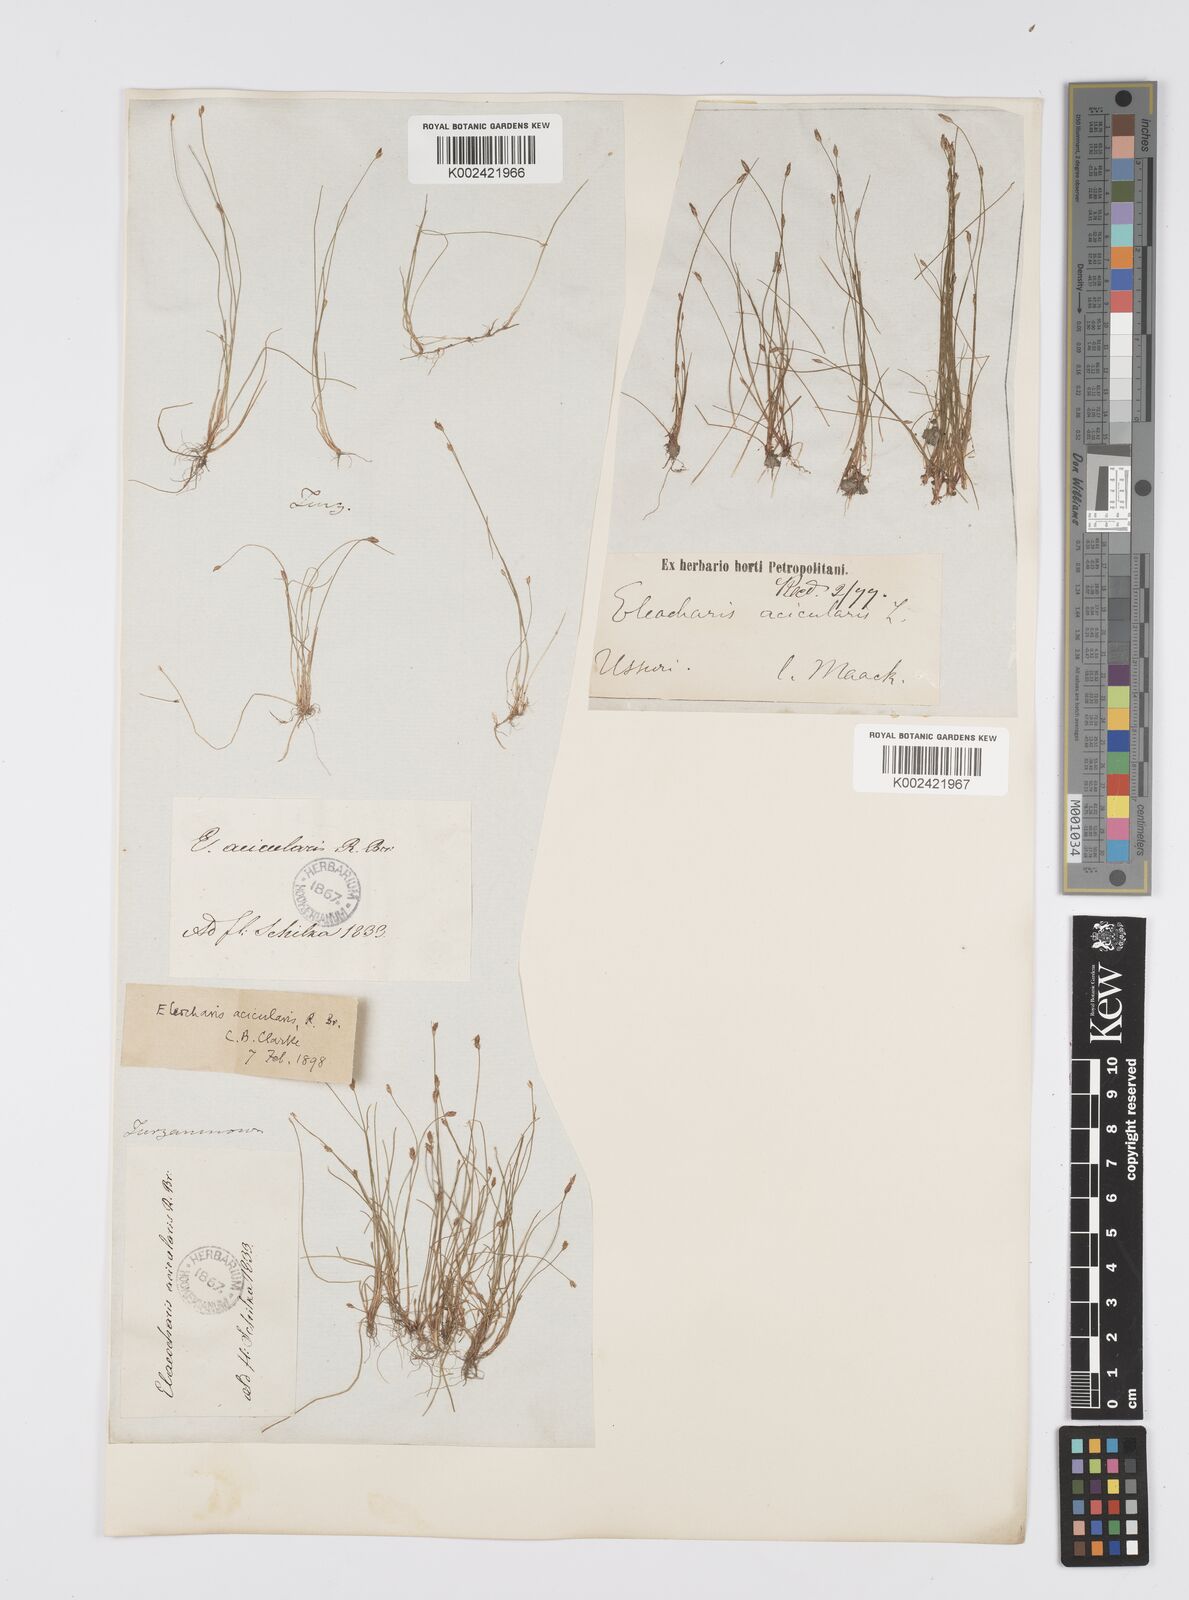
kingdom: Plantae
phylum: Tracheophyta
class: Liliopsida
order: Poales
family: Cyperaceae
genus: Eleocharis
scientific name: Eleocharis acicularis
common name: Needle spike-rush
